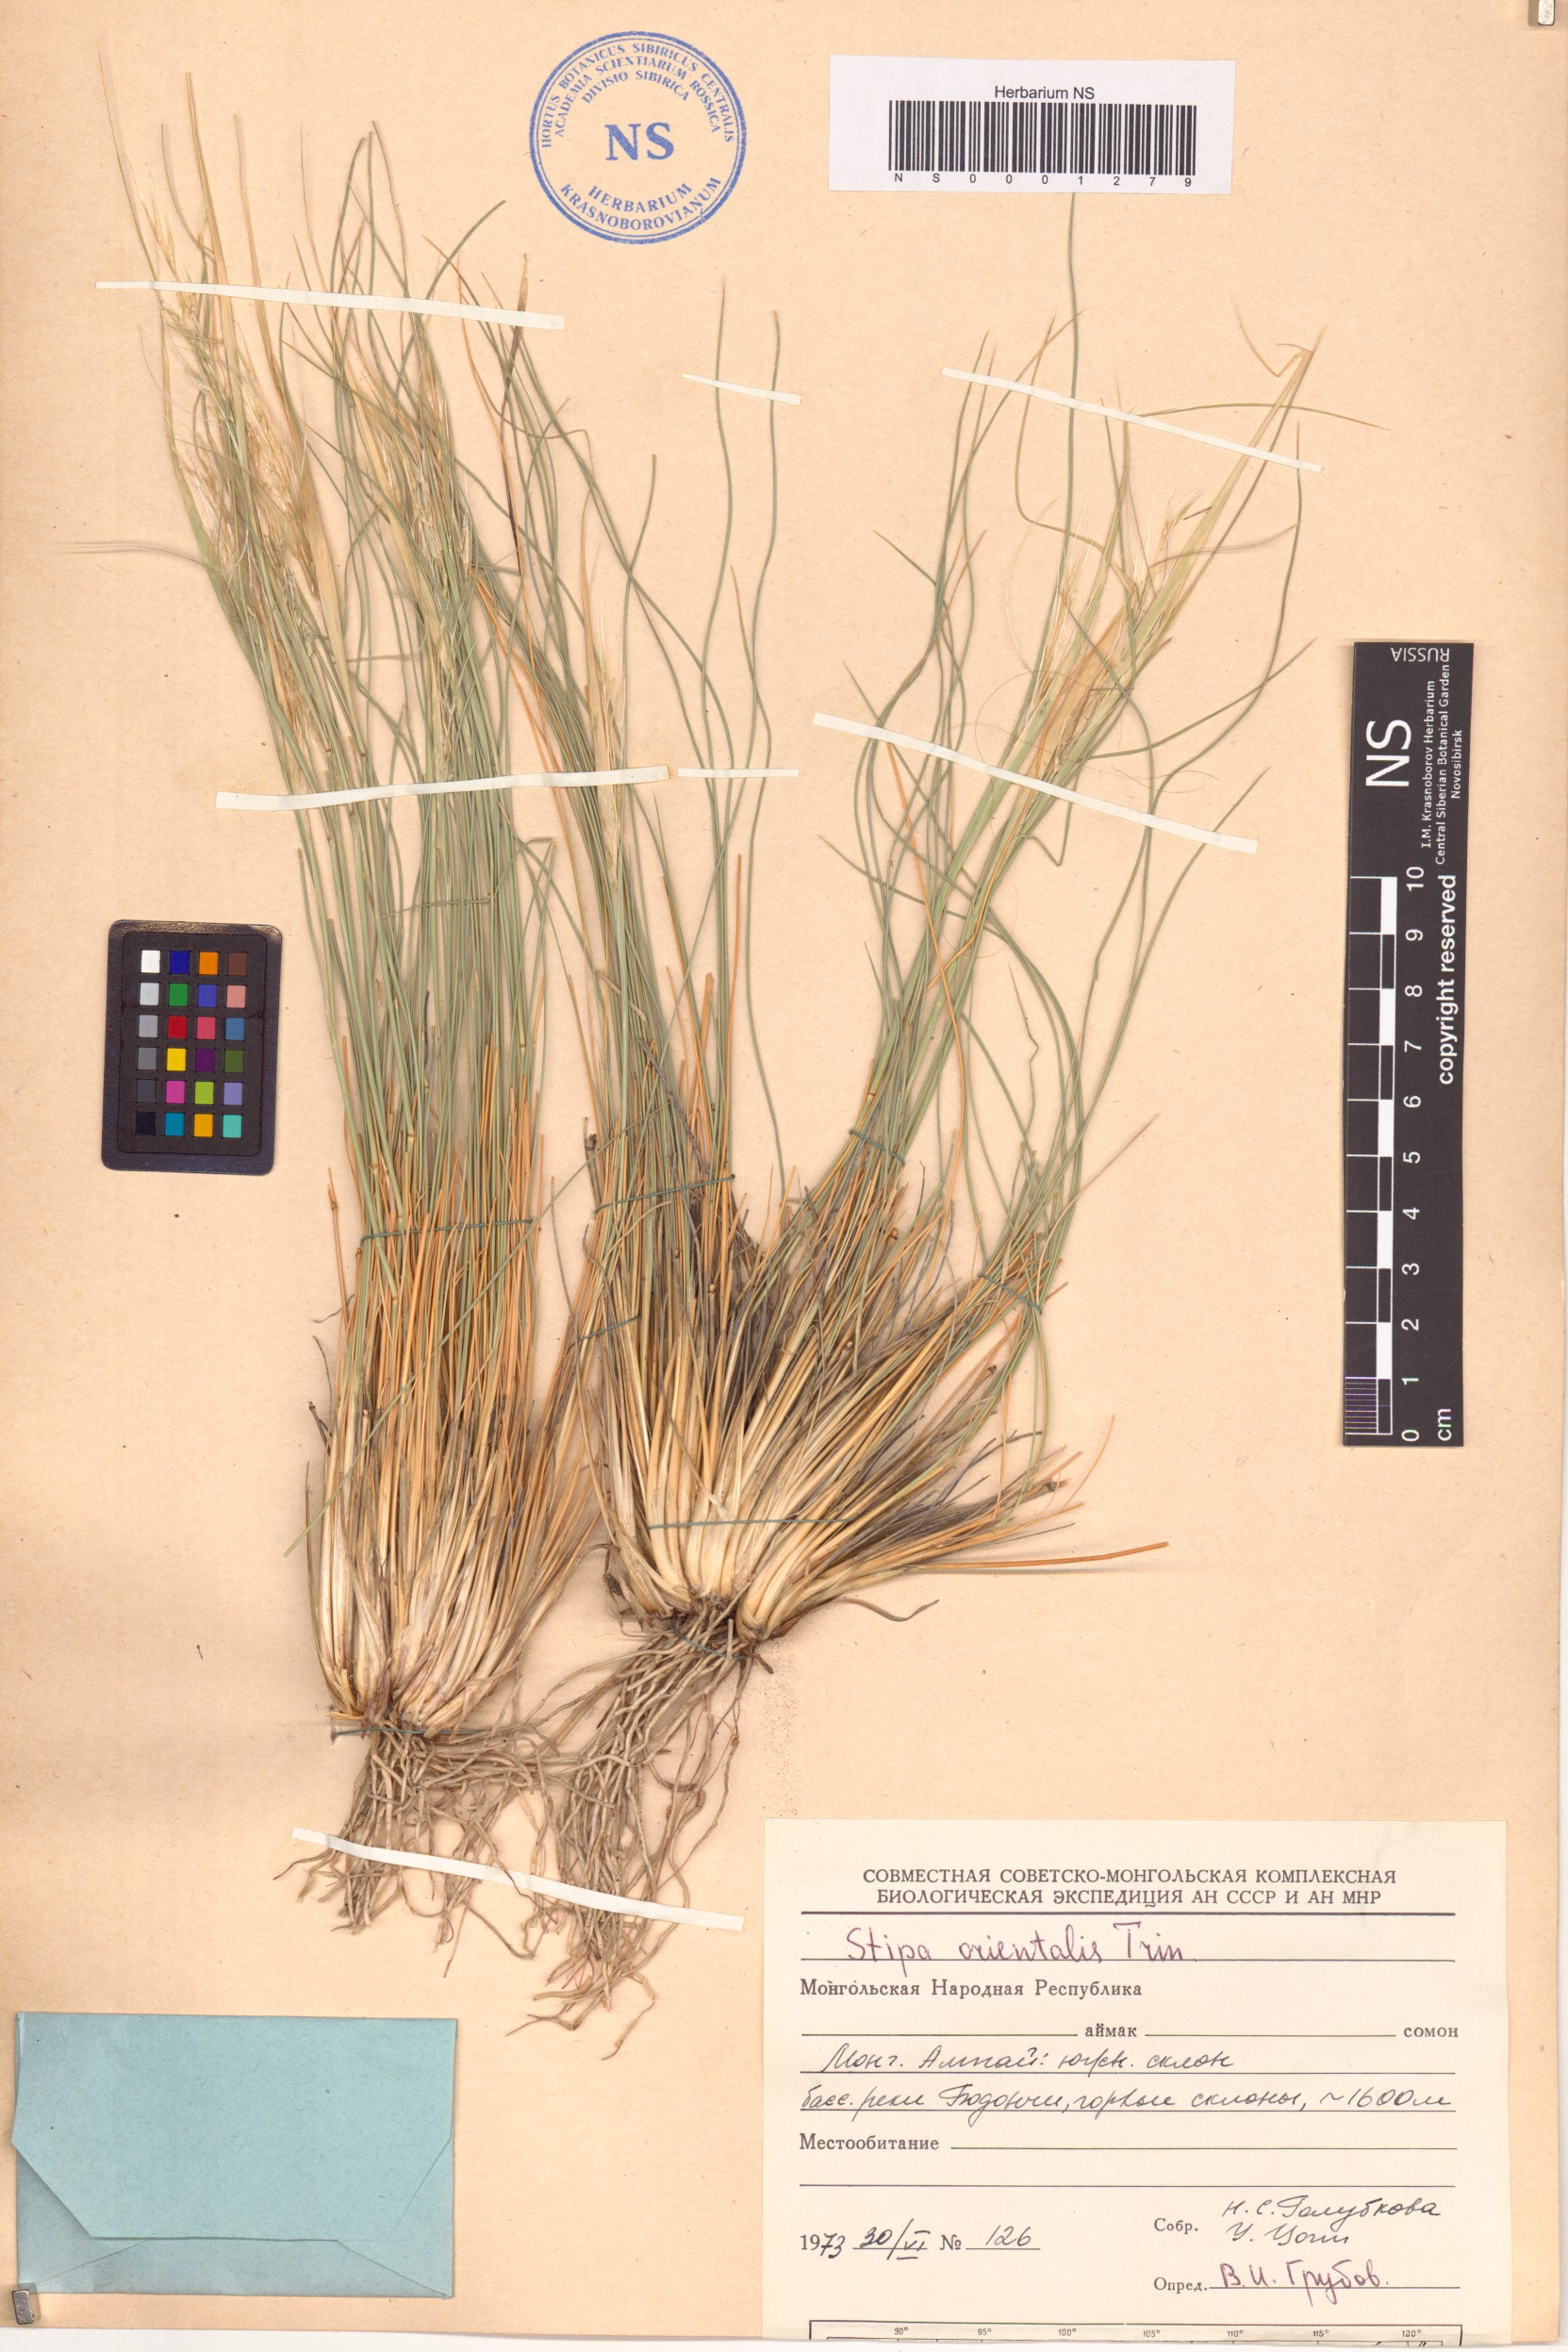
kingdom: Plantae
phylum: Tracheophyta
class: Liliopsida
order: Poales
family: Poaceae
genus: Stipa
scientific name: Stipa orientalis
